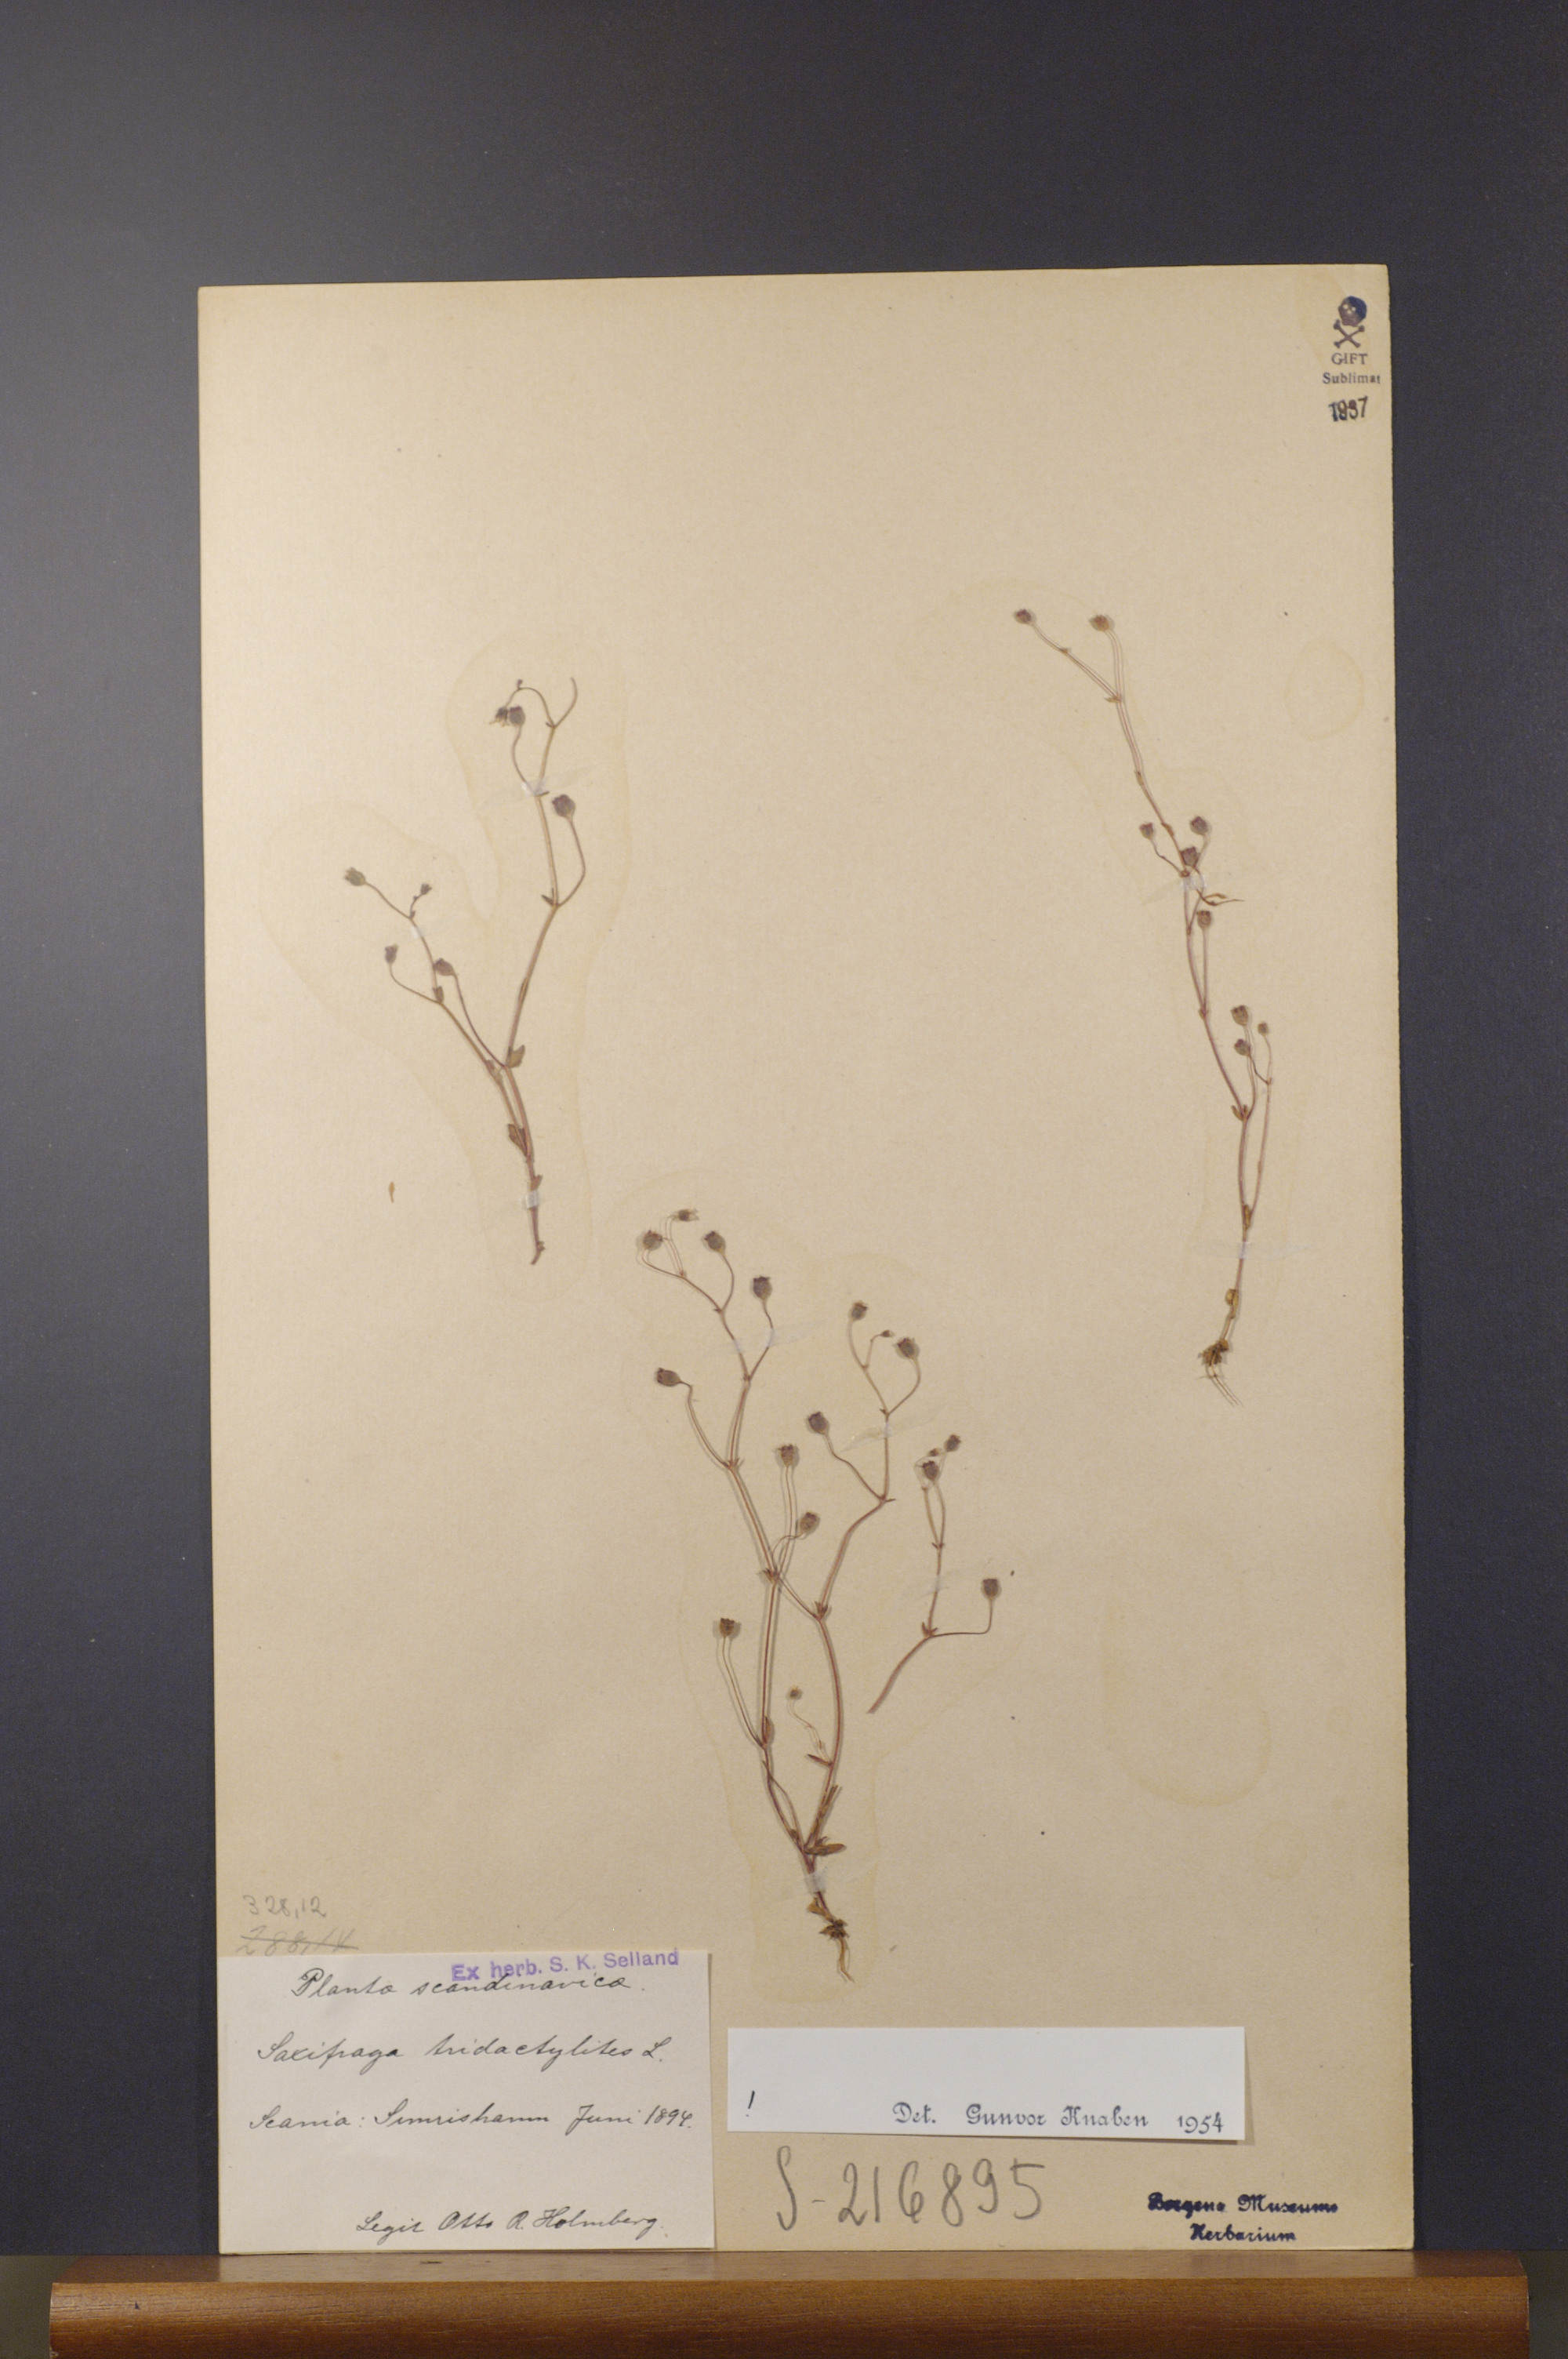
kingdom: Plantae
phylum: Tracheophyta
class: Magnoliopsida
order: Saxifragales
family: Saxifragaceae
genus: Saxifraga
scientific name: Saxifraga tridactylites
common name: Rue-leaved saxifrage
